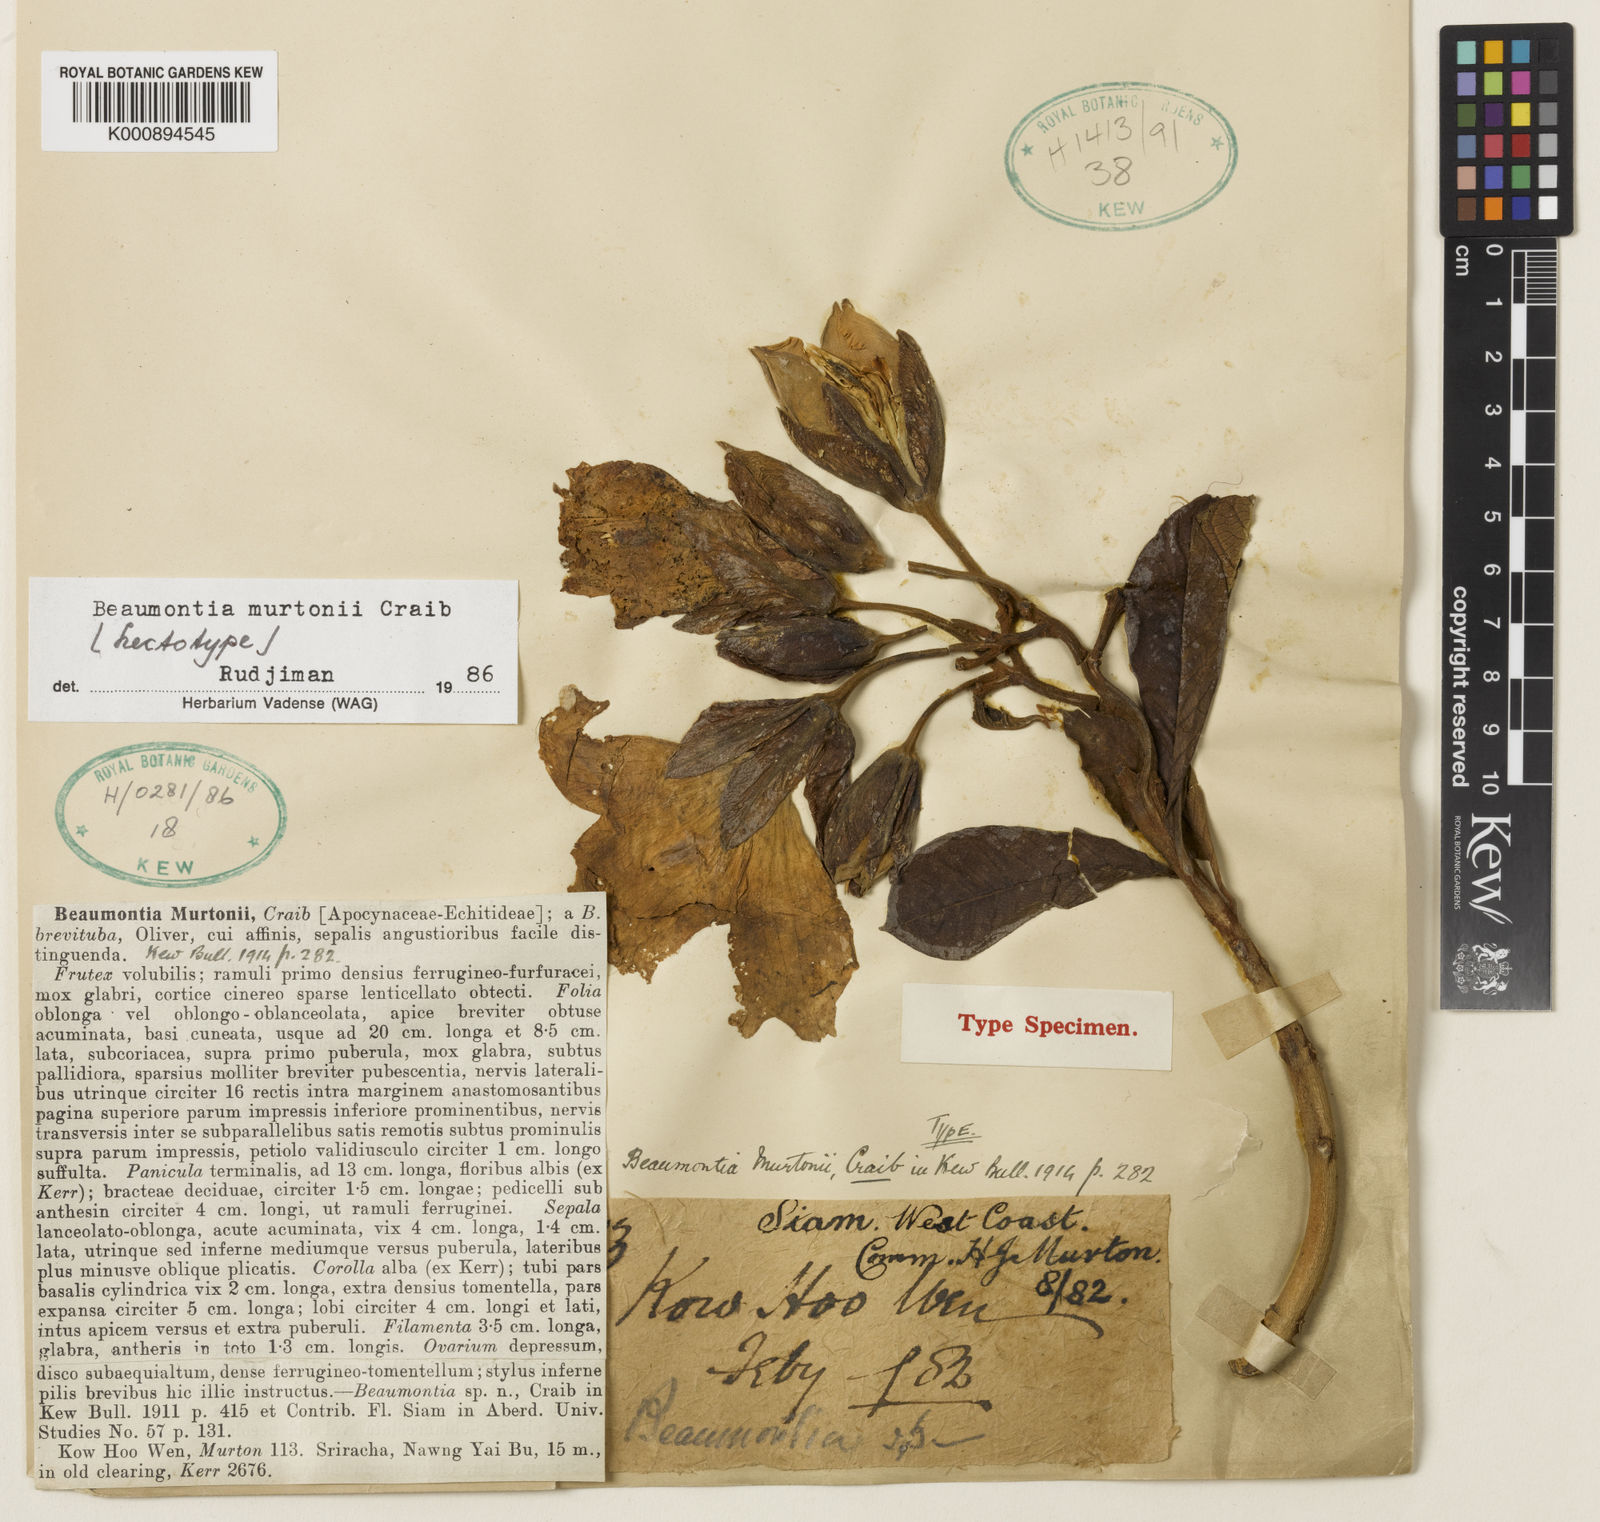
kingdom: Plantae
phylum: Tracheophyta
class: Magnoliopsida
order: Gentianales
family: Apocynaceae
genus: Beaumontia
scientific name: Beaumontia murtonii
